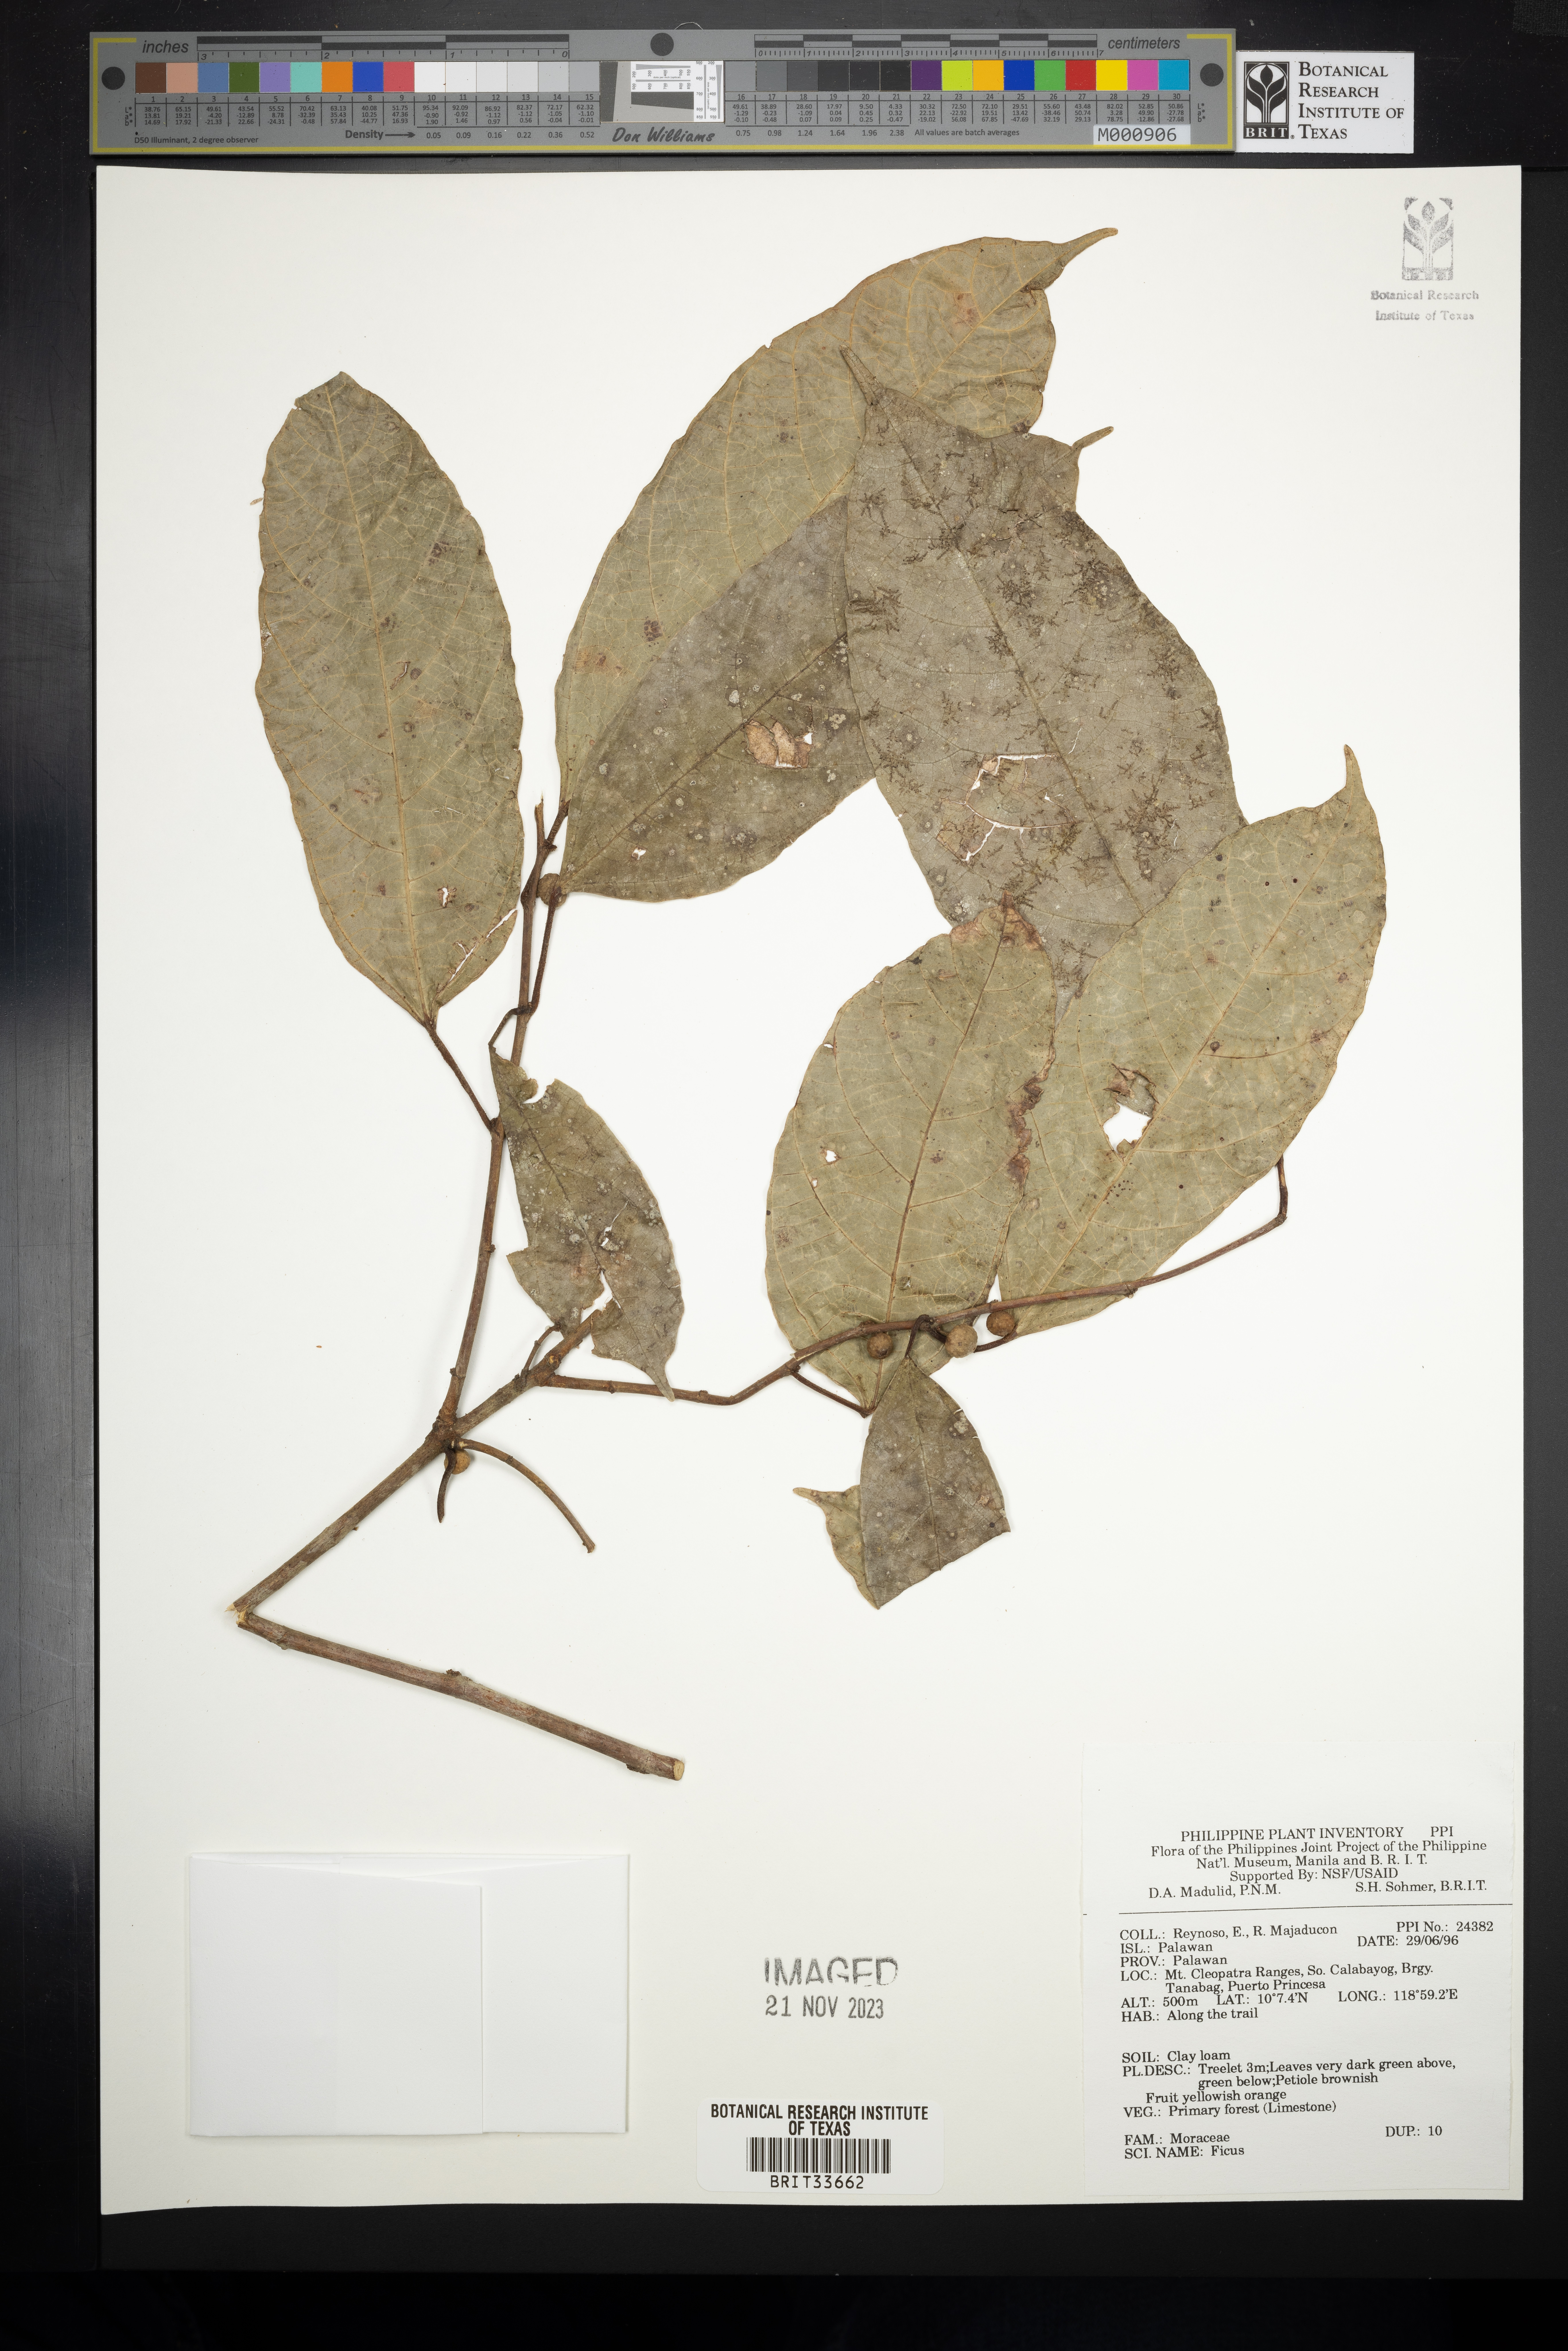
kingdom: Plantae
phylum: Tracheophyta
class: Magnoliopsida
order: Rosales
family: Moraceae
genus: Ficus
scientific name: Ficus
